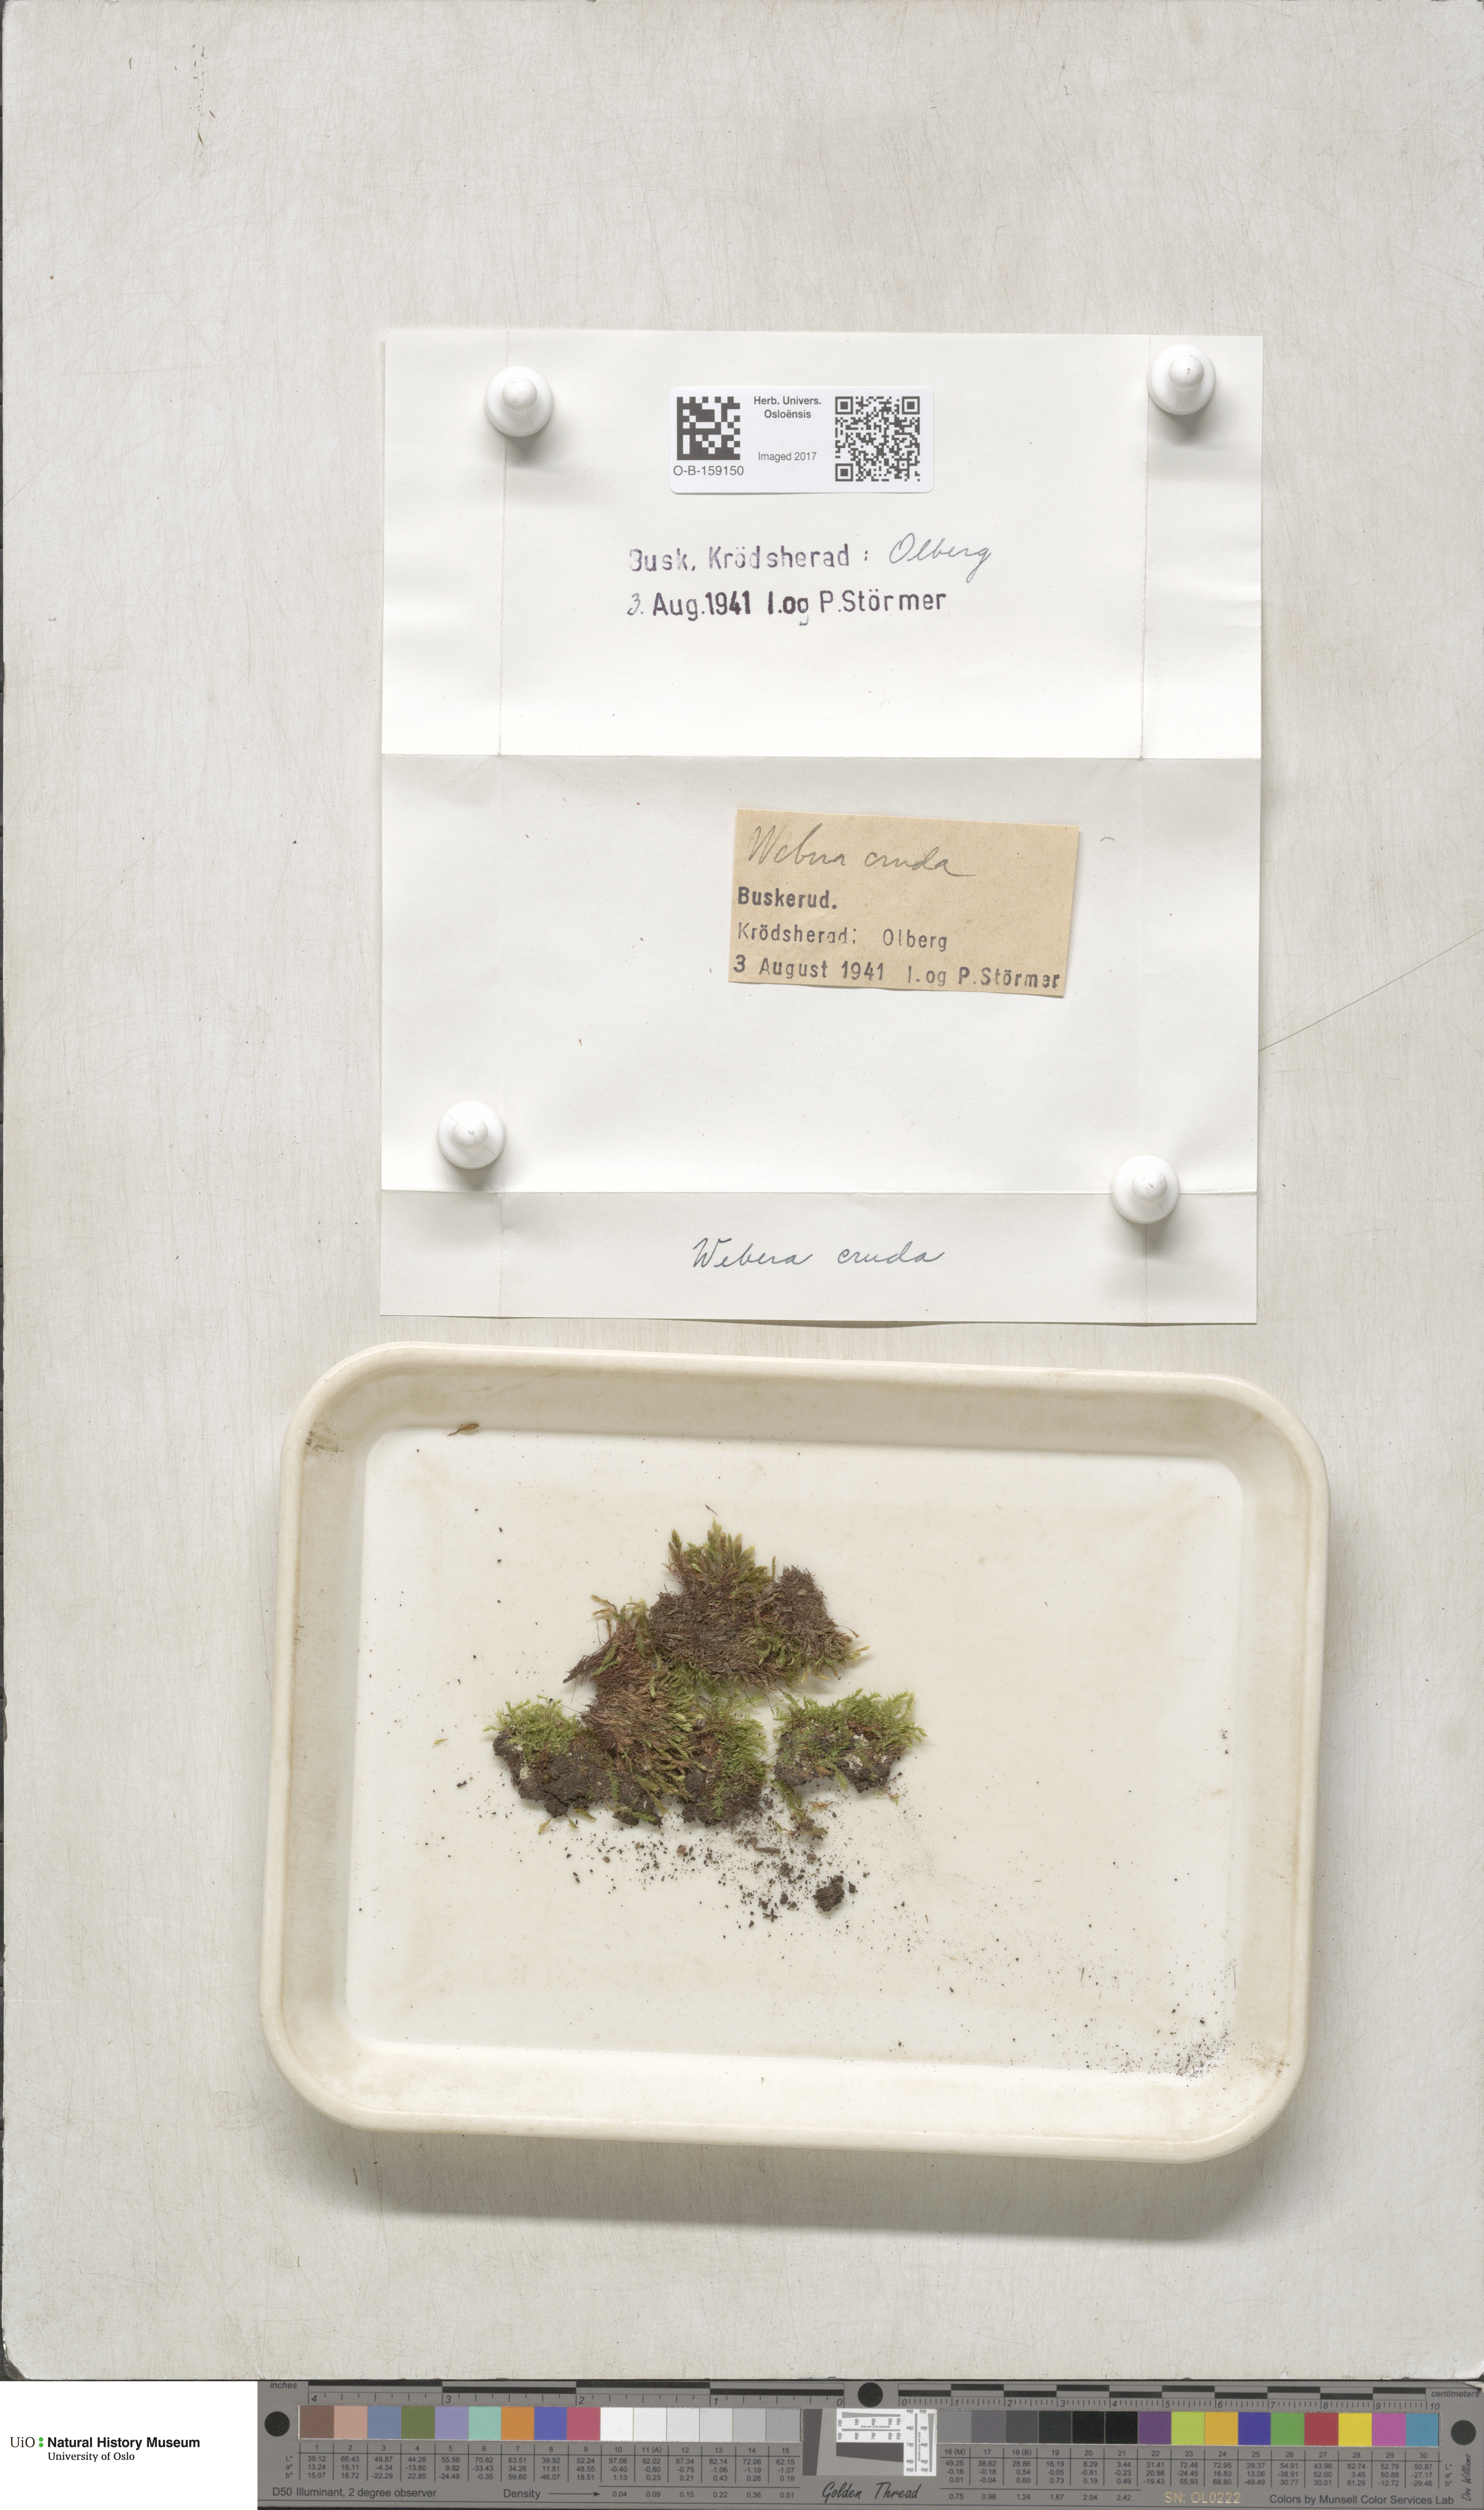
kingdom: Plantae
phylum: Bryophyta
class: Bryopsida
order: Bryales
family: Mniaceae
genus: Pohlia
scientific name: Pohlia cruda
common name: Opal nodding moss
